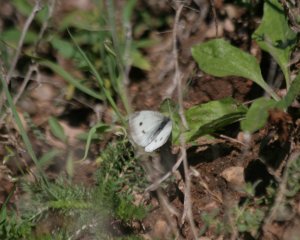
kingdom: Animalia
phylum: Arthropoda
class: Insecta
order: Lepidoptera
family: Pieridae
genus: Pieris
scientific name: Pieris rapae
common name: Cabbage White
